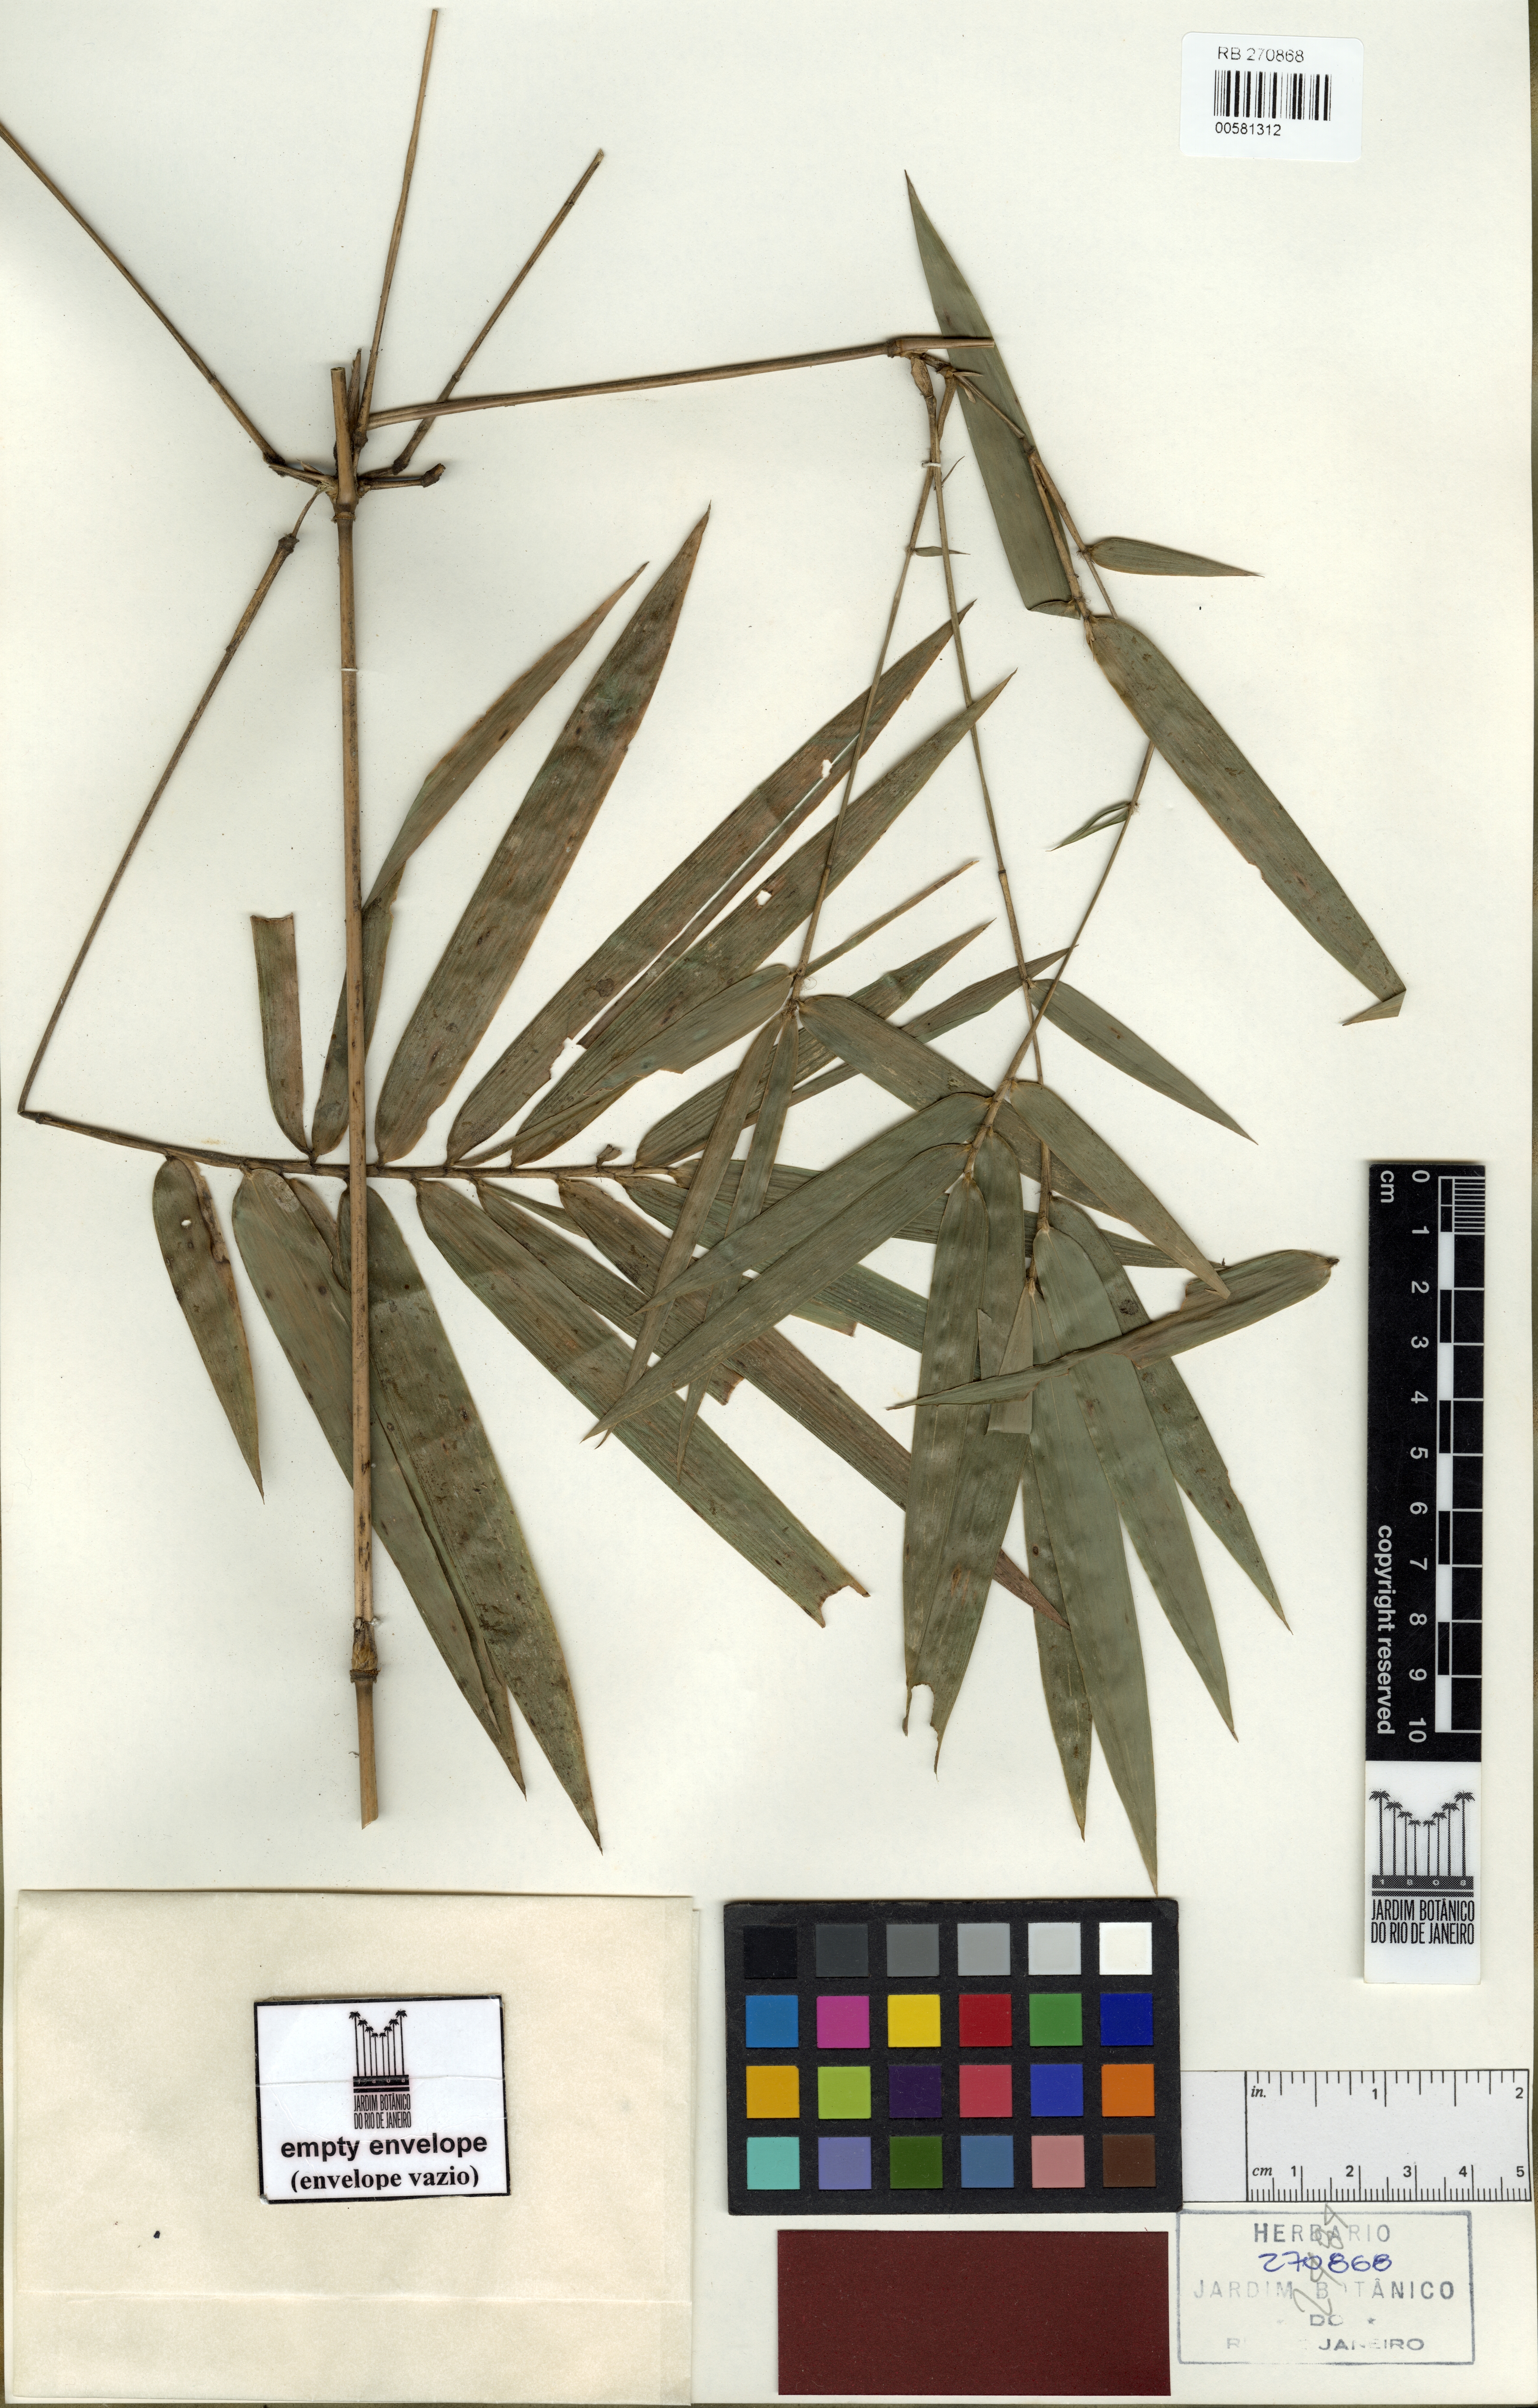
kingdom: Plantae
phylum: Tracheophyta
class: Liliopsida
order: Poales
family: Poaceae
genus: Atractantha
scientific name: Atractantha aureolanata
